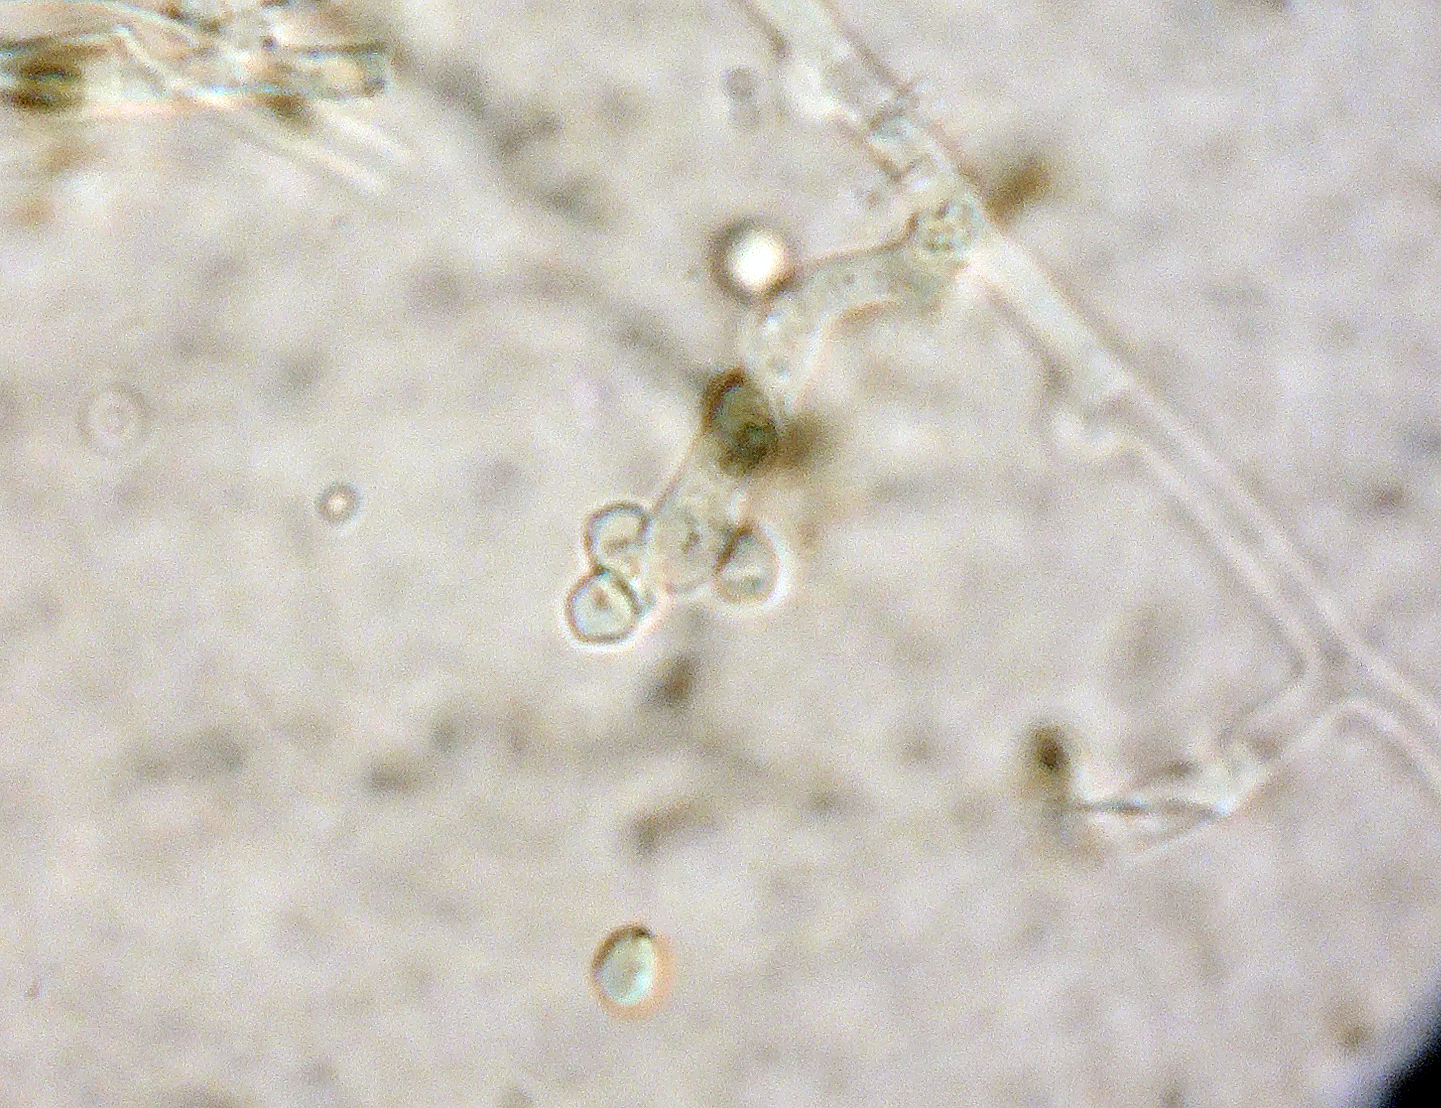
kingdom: Fungi
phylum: Basidiomycota
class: Agaricomycetes
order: Corticiales
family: Corticiaceae
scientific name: Corticiaceae
